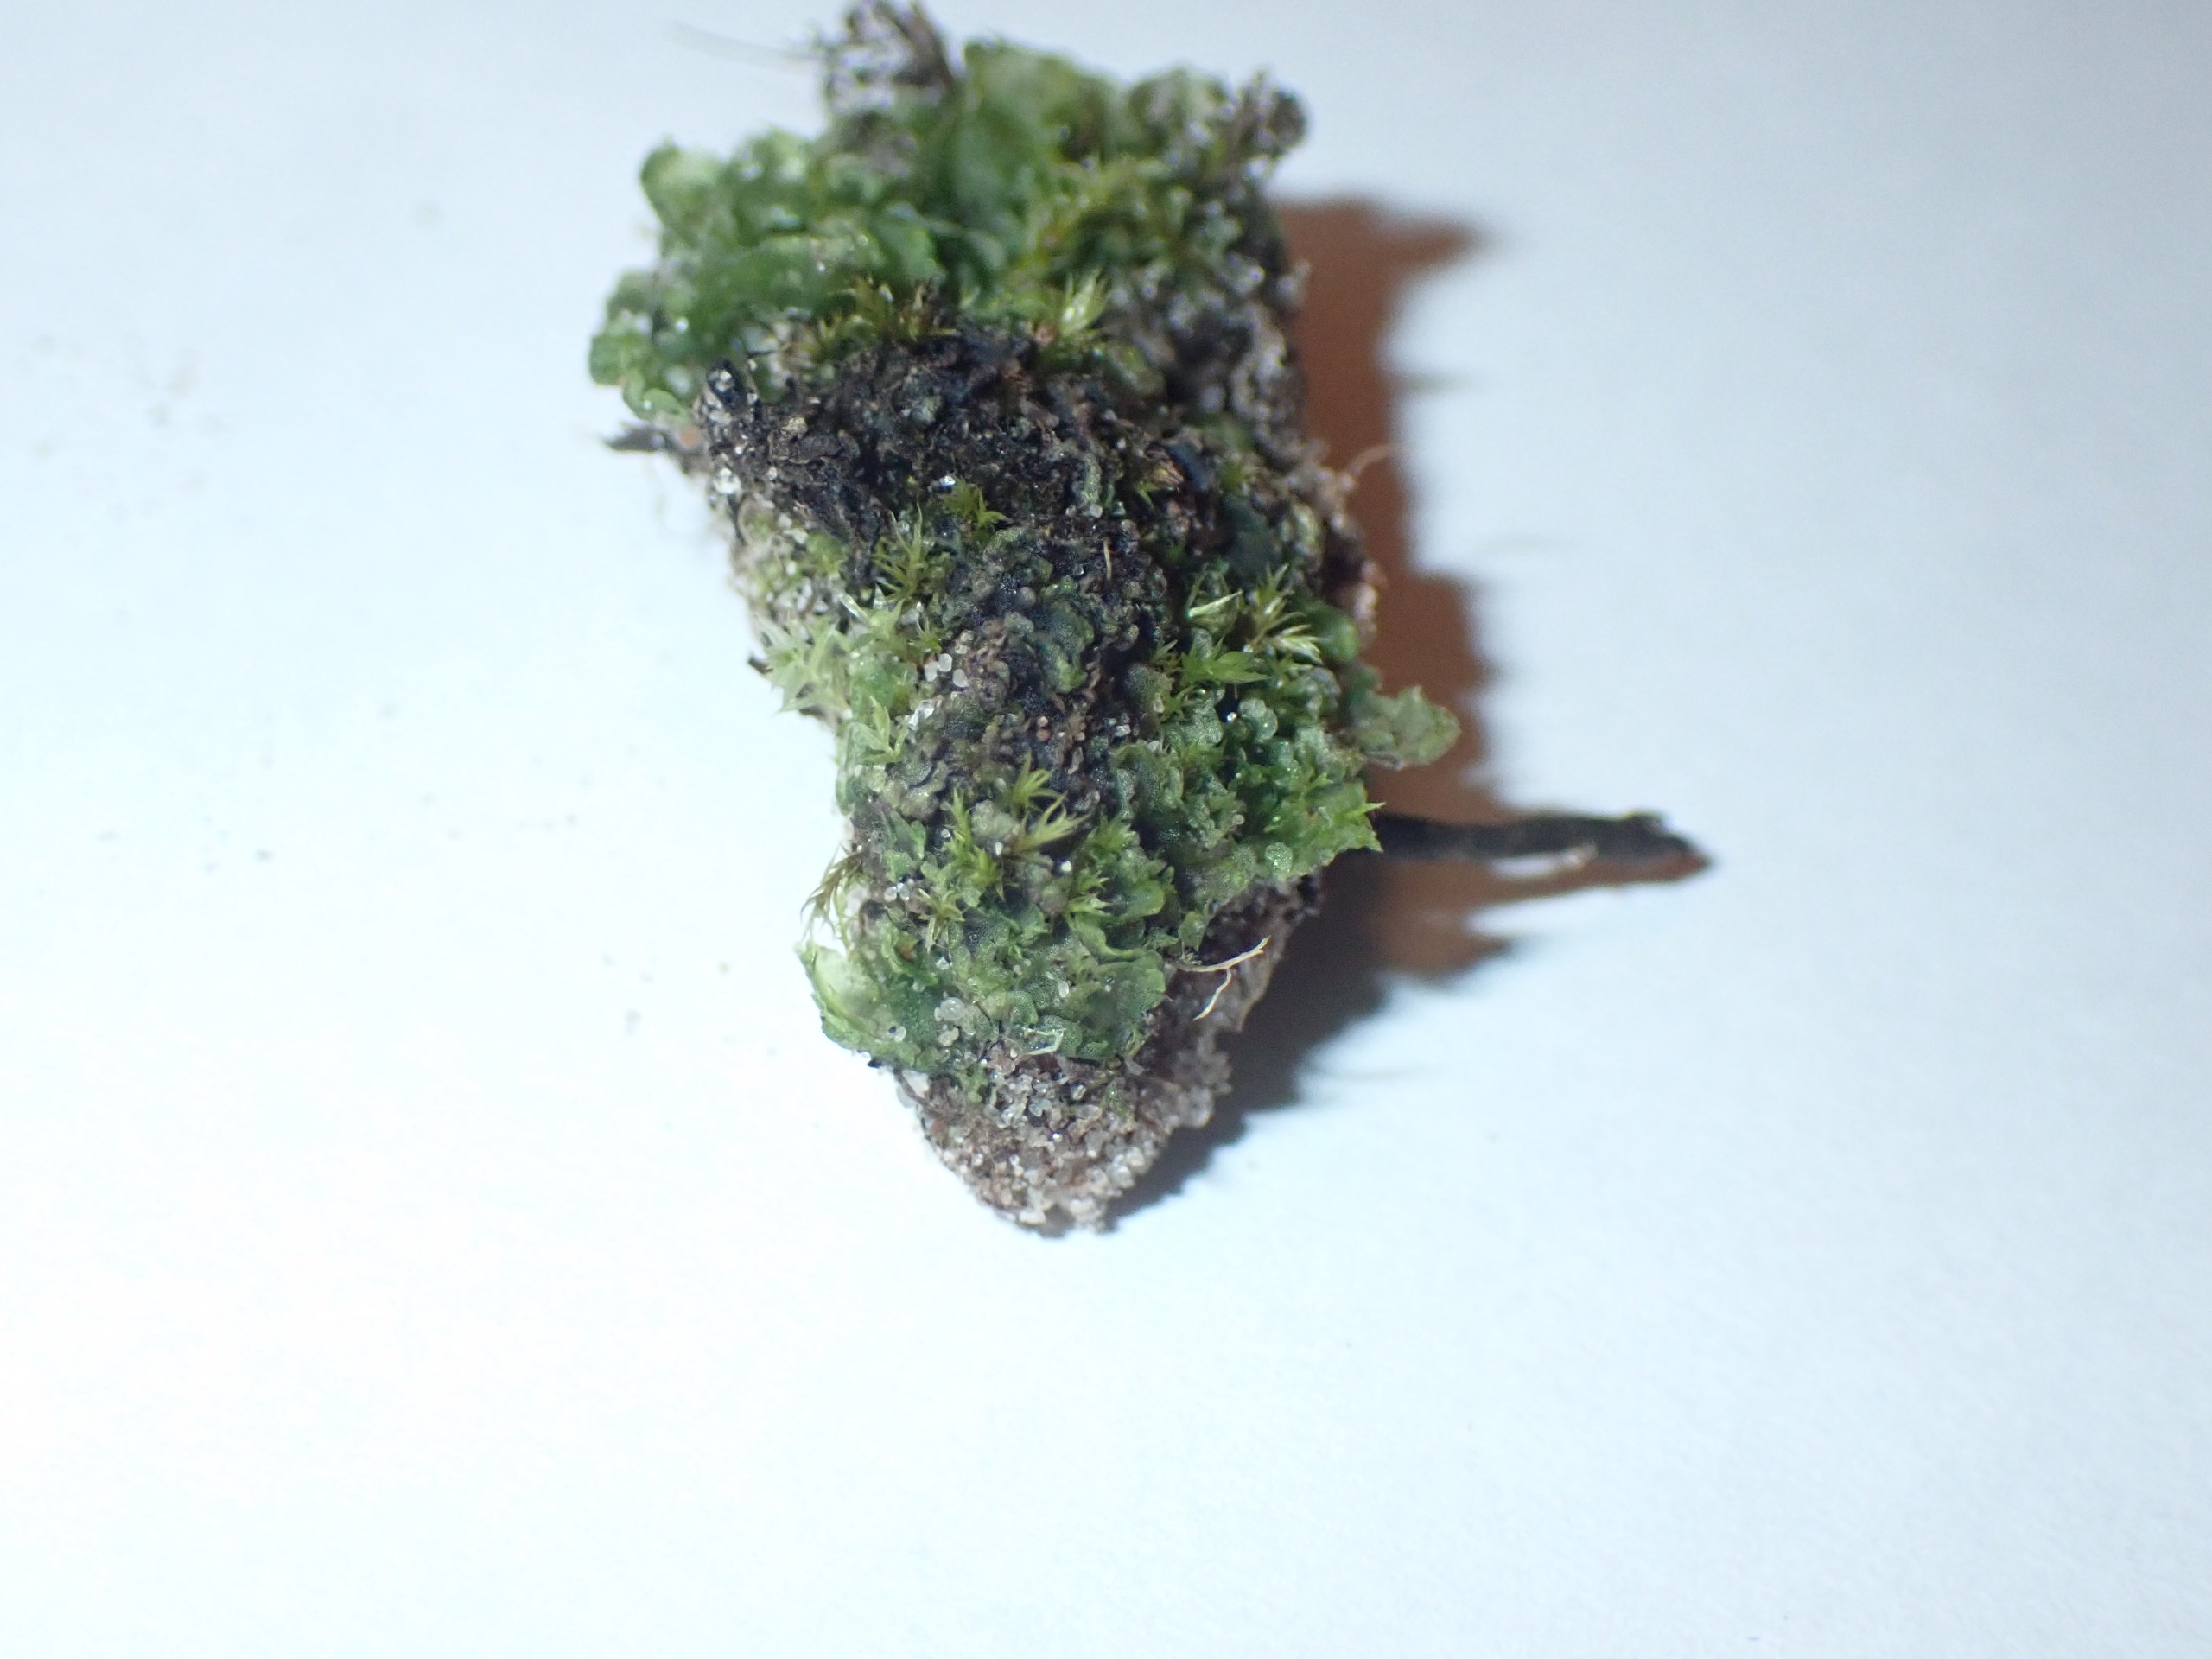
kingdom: Plantae
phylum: Marchantiophyta
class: Marchantiopsida
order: Blasiales
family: Blasiaceae
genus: Blasia
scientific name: Blasia pusilla
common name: Ager-prikløv
